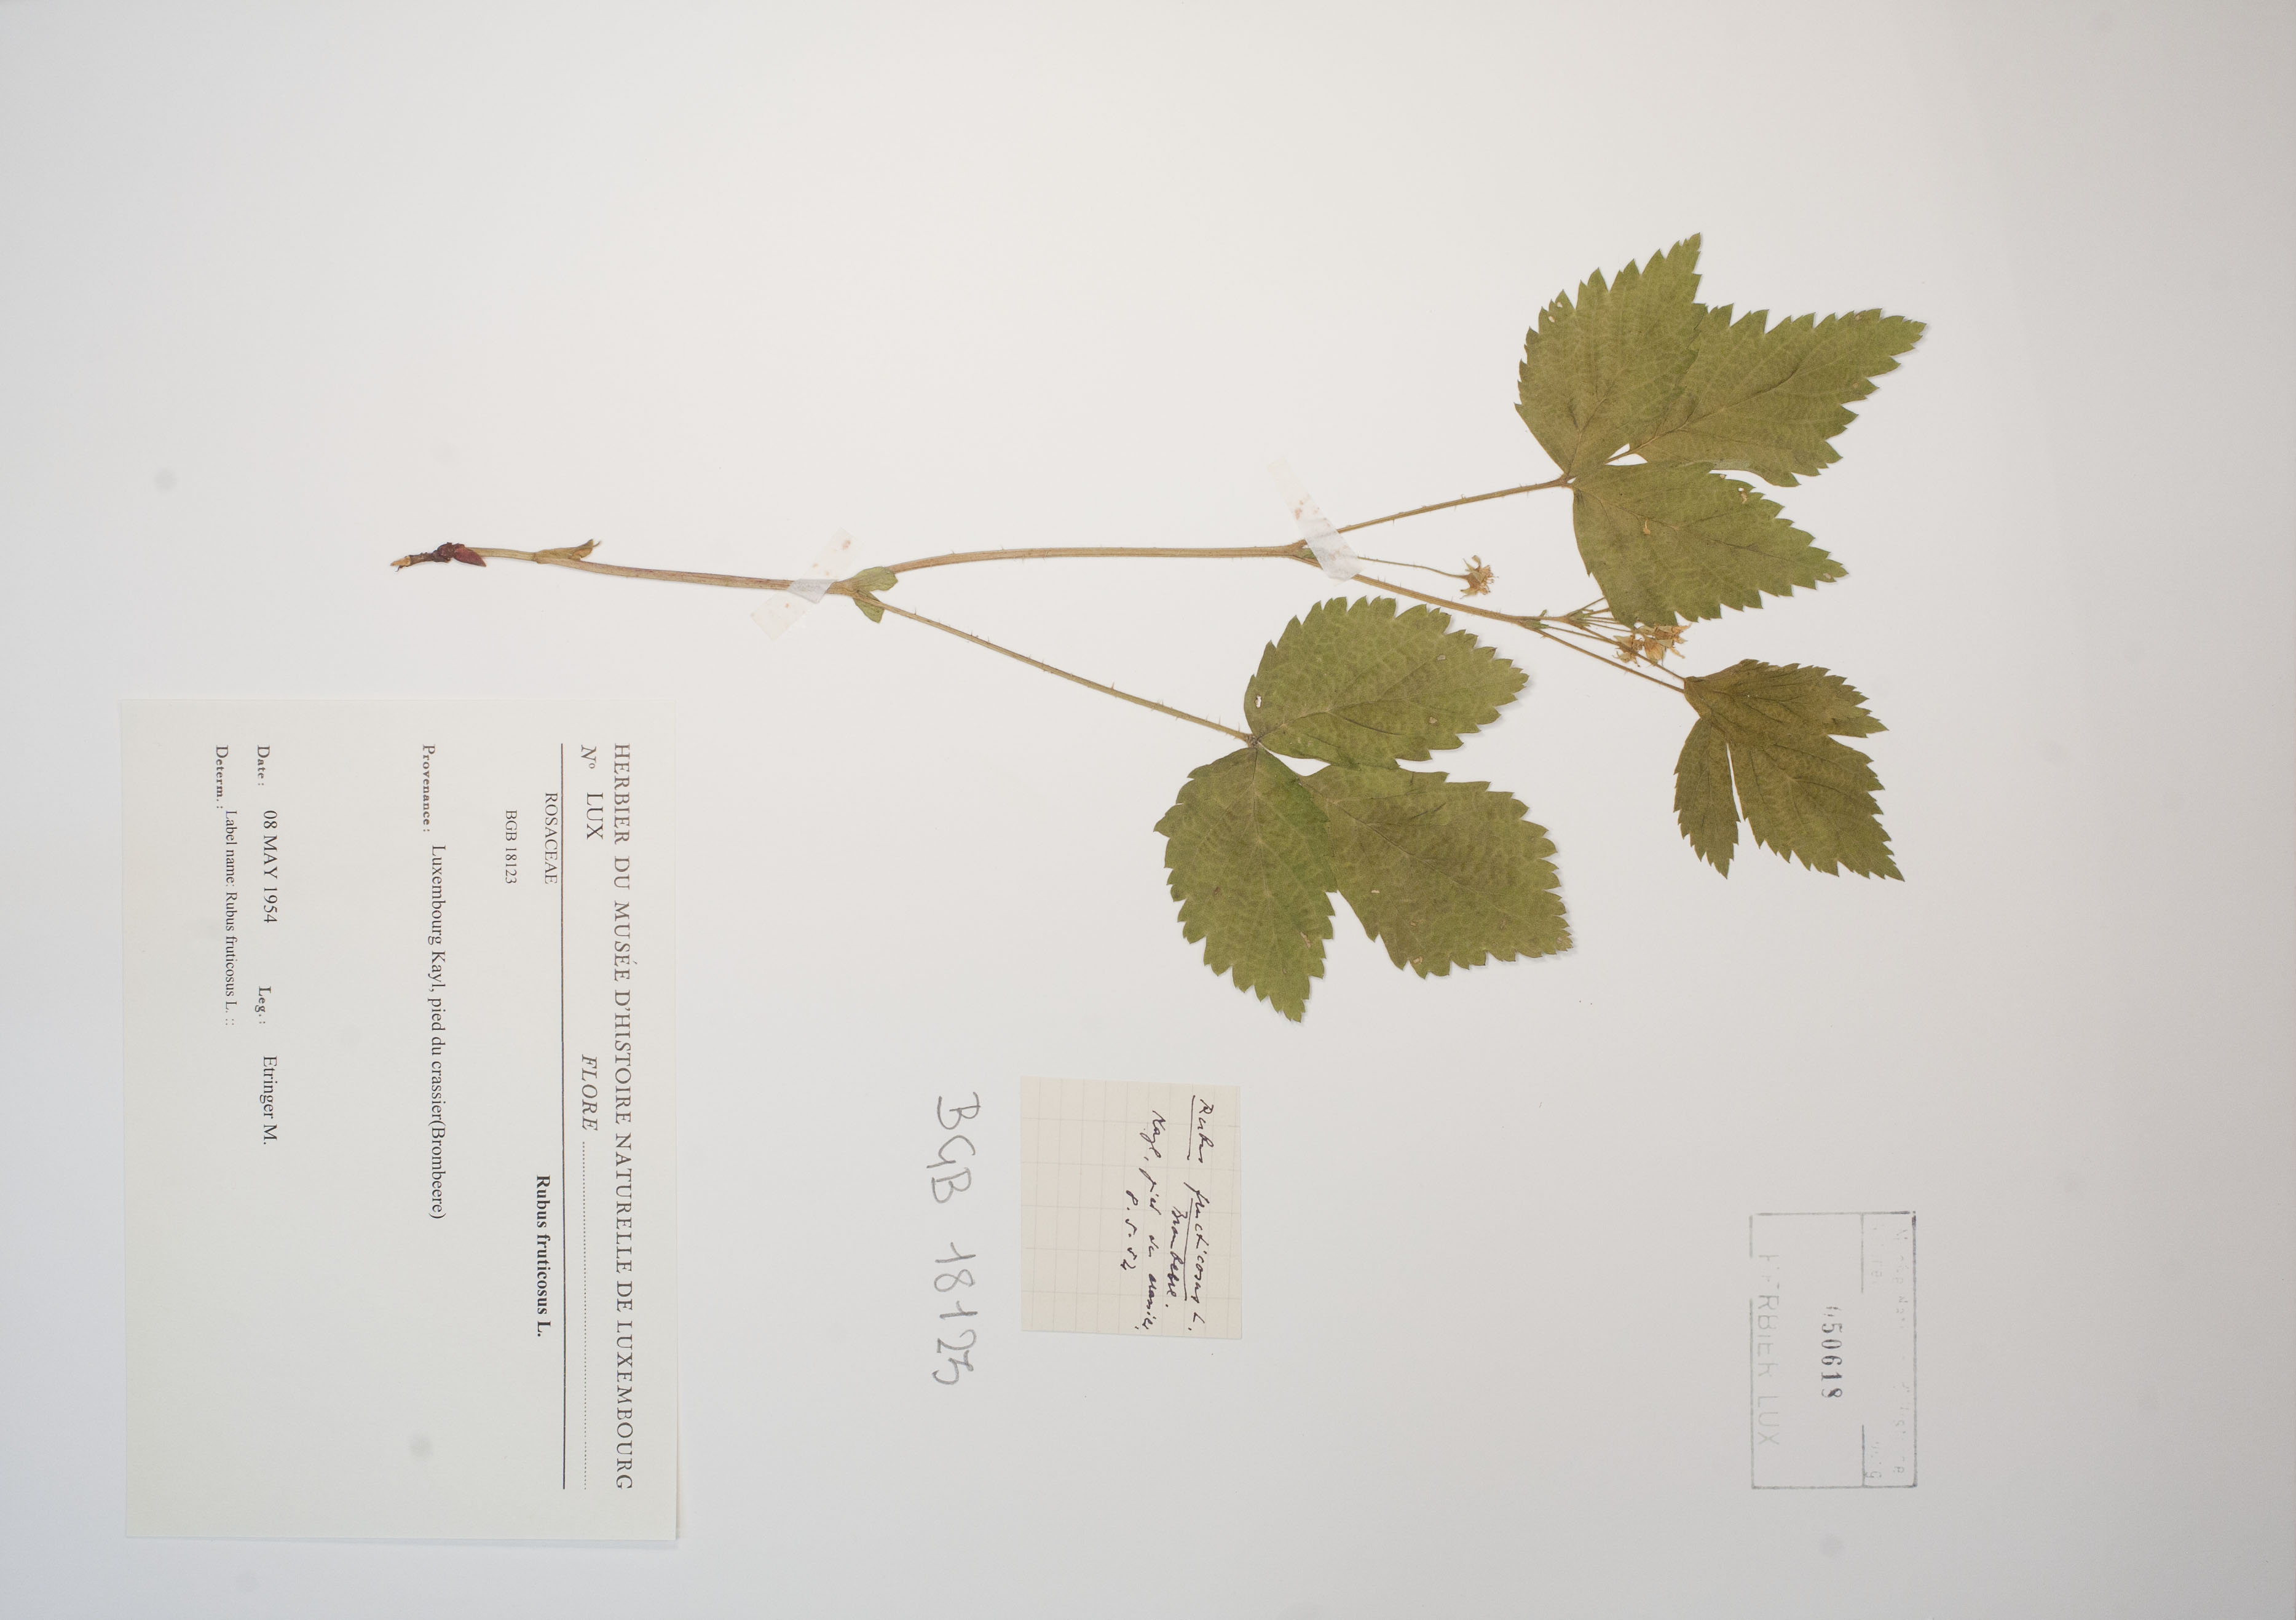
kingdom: Plantae
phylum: Tracheophyta
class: Magnoliopsida
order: Rosales
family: Rosaceae
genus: Rubus
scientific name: Rubus saxatilis
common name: Stone bramble
